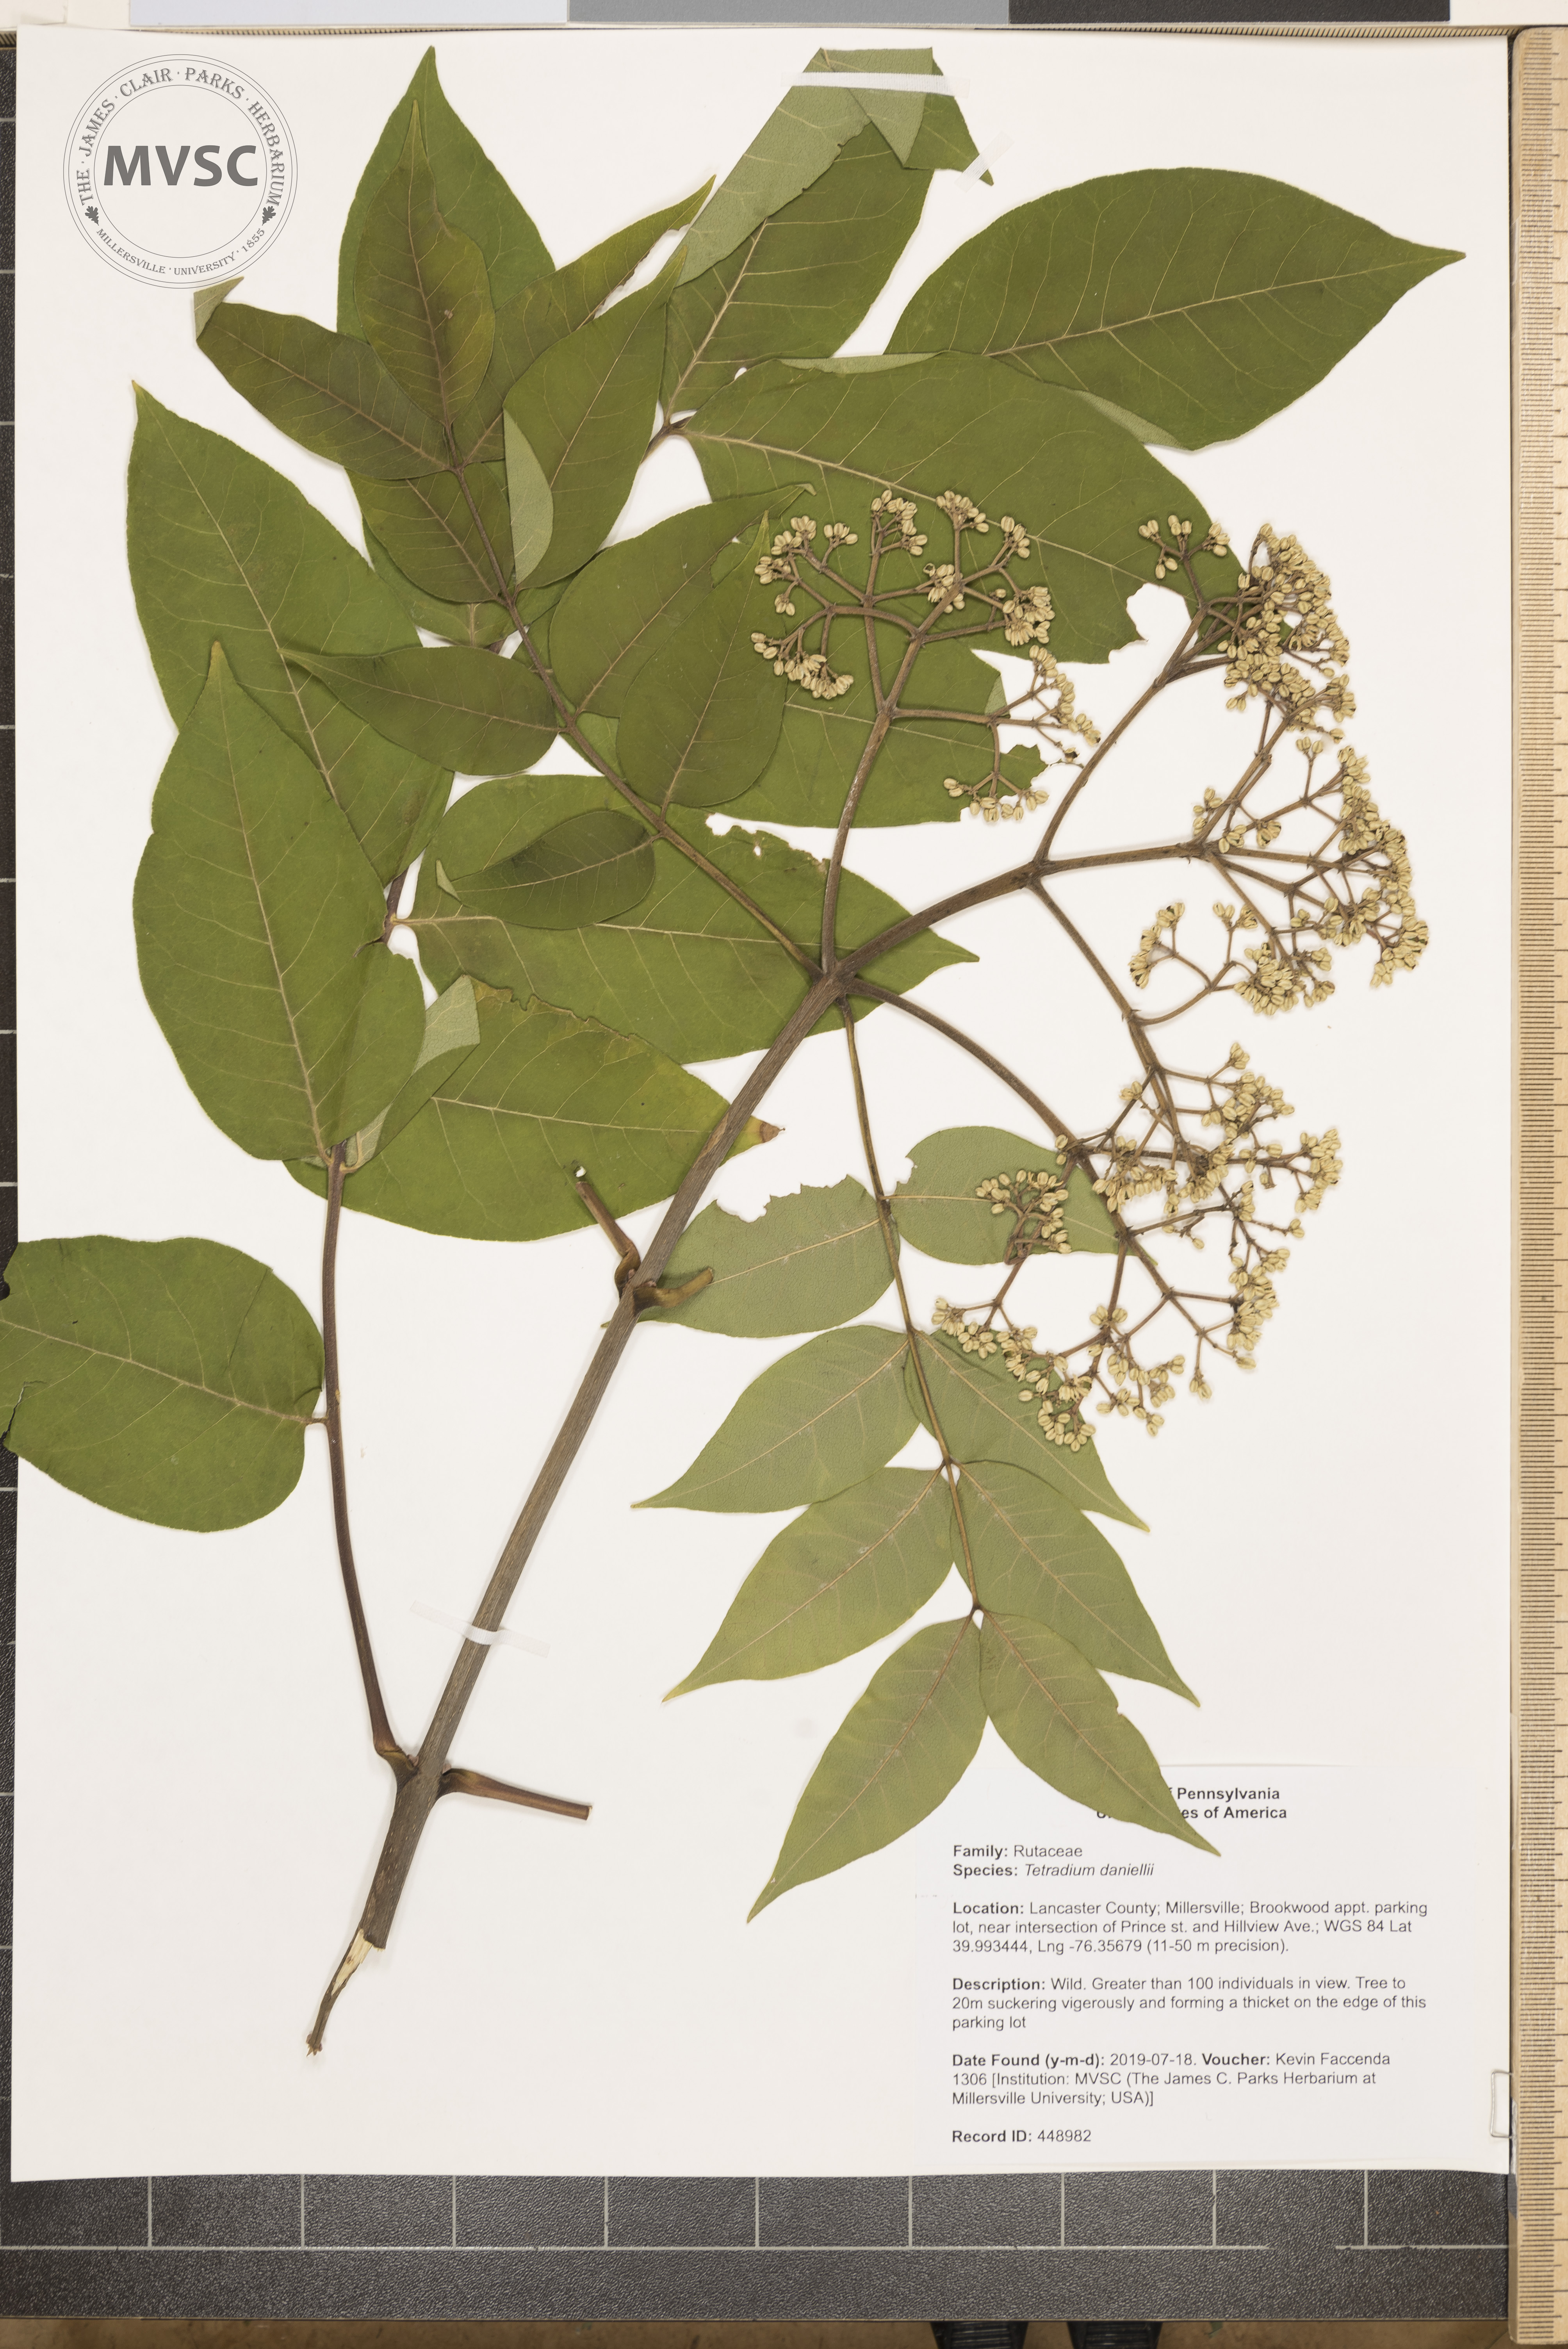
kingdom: Plantae
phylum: Tracheophyta
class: Magnoliopsida
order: Sapindales
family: Rutaceae
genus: Tetradium
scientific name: Tetradium daniellii
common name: Bee-bee tree
